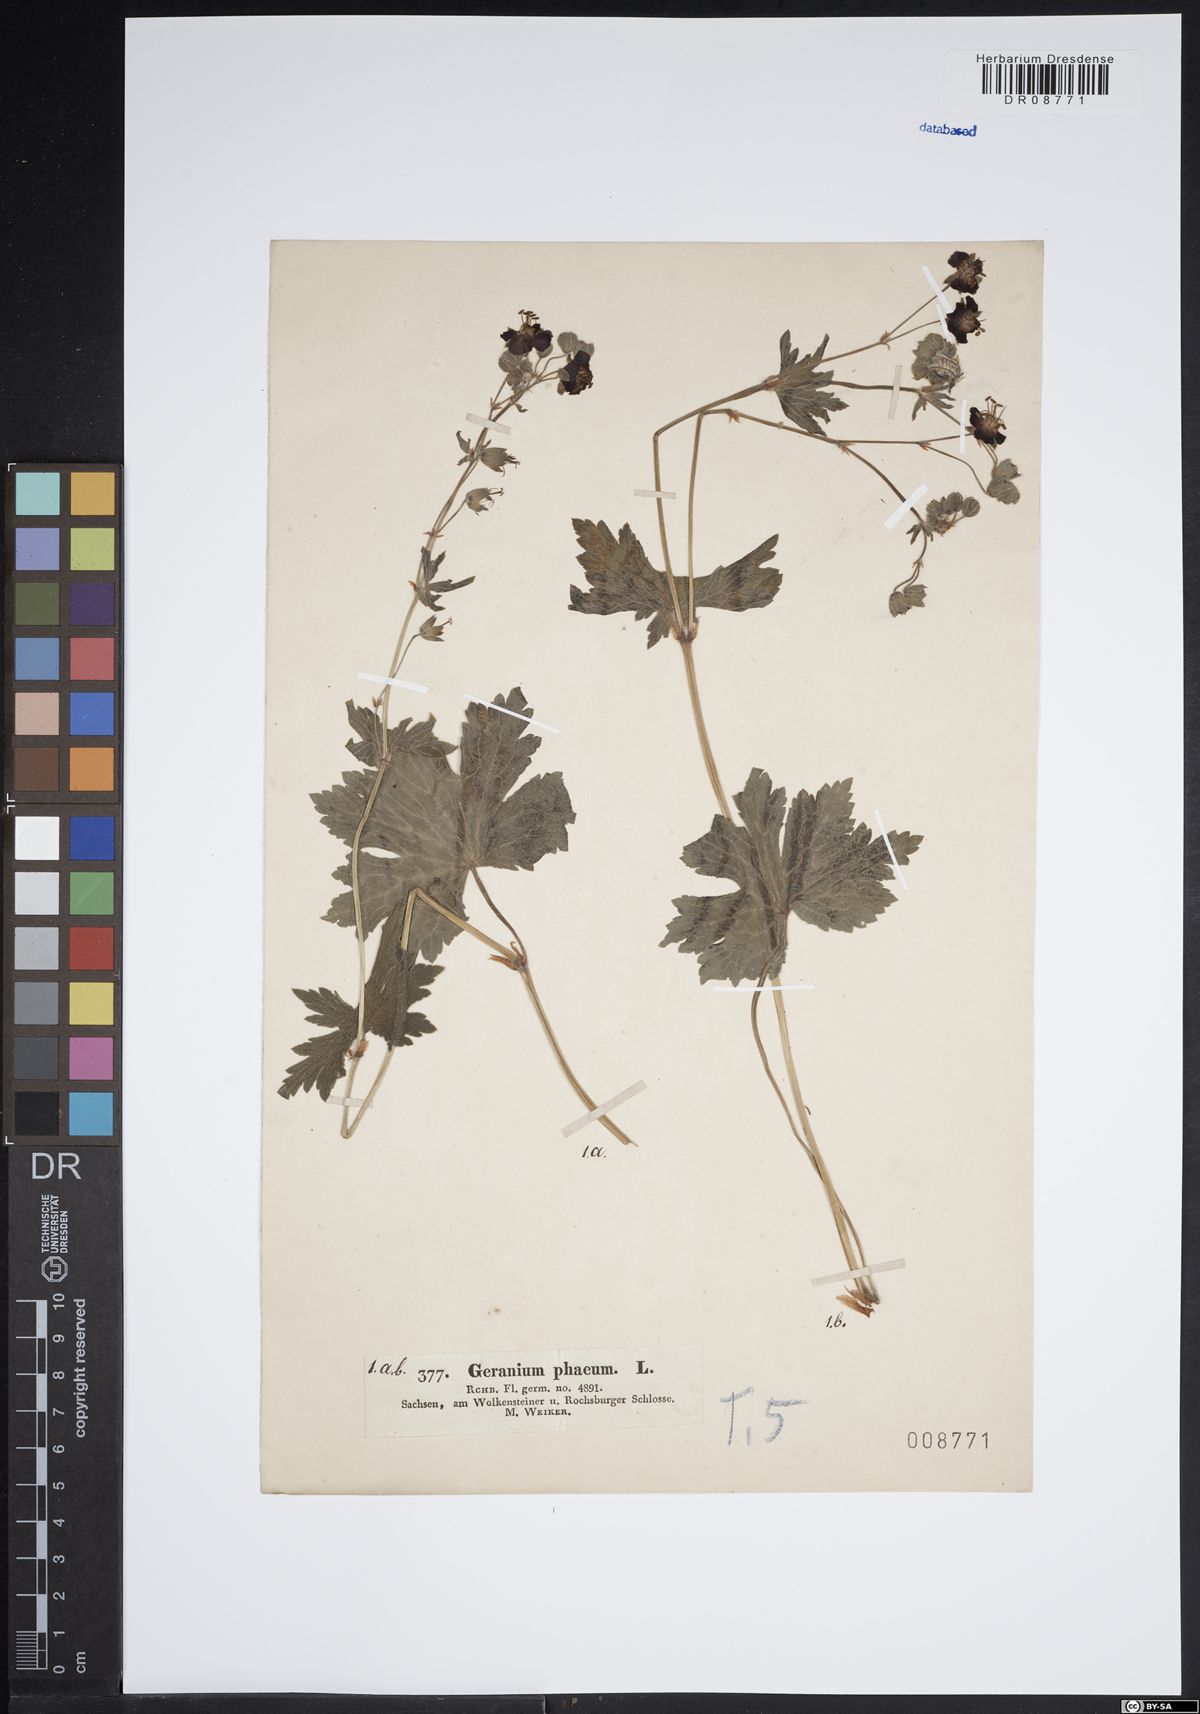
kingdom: Plantae
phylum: Tracheophyta
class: Magnoliopsida
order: Geraniales
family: Geraniaceae
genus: Geranium
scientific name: Geranium phaeum
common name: Dusky crane's-bill
